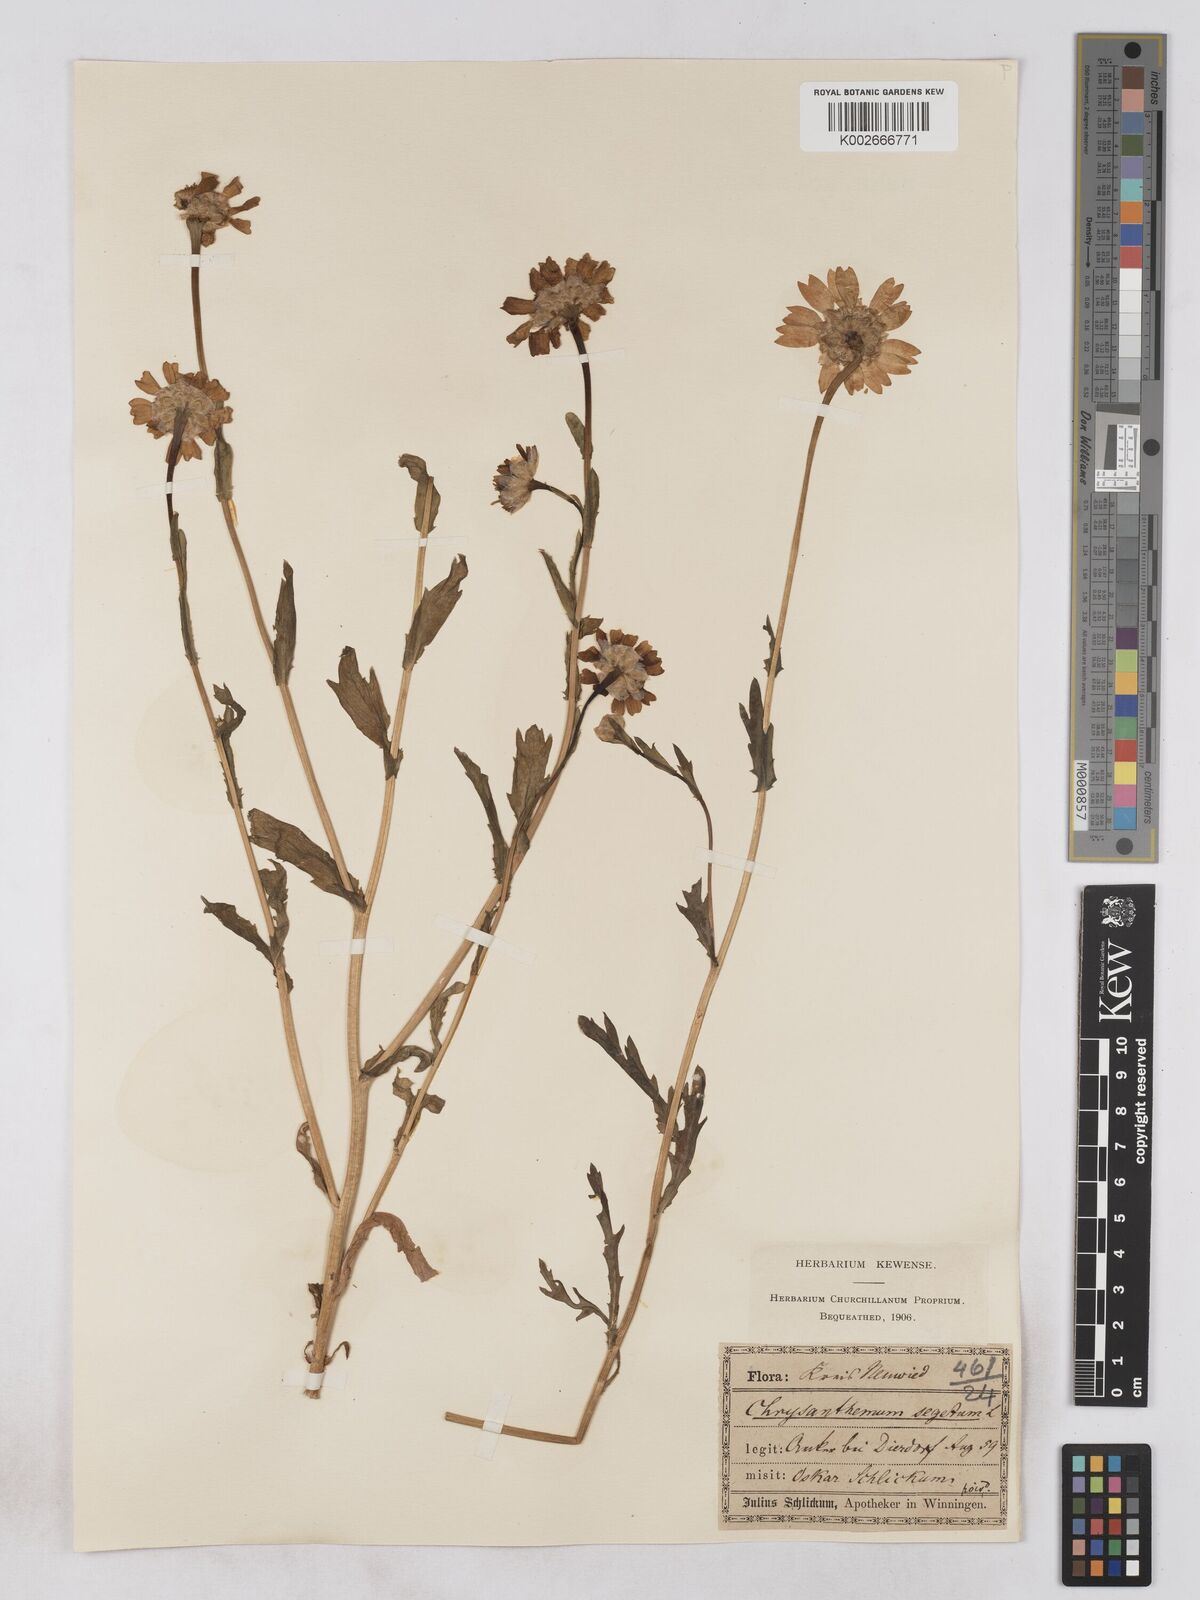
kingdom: Plantae
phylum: Tracheophyta
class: Magnoliopsida
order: Asterales
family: Asteraceae
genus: Glebionis
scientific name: Glebionis segetum
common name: Corndaisy
